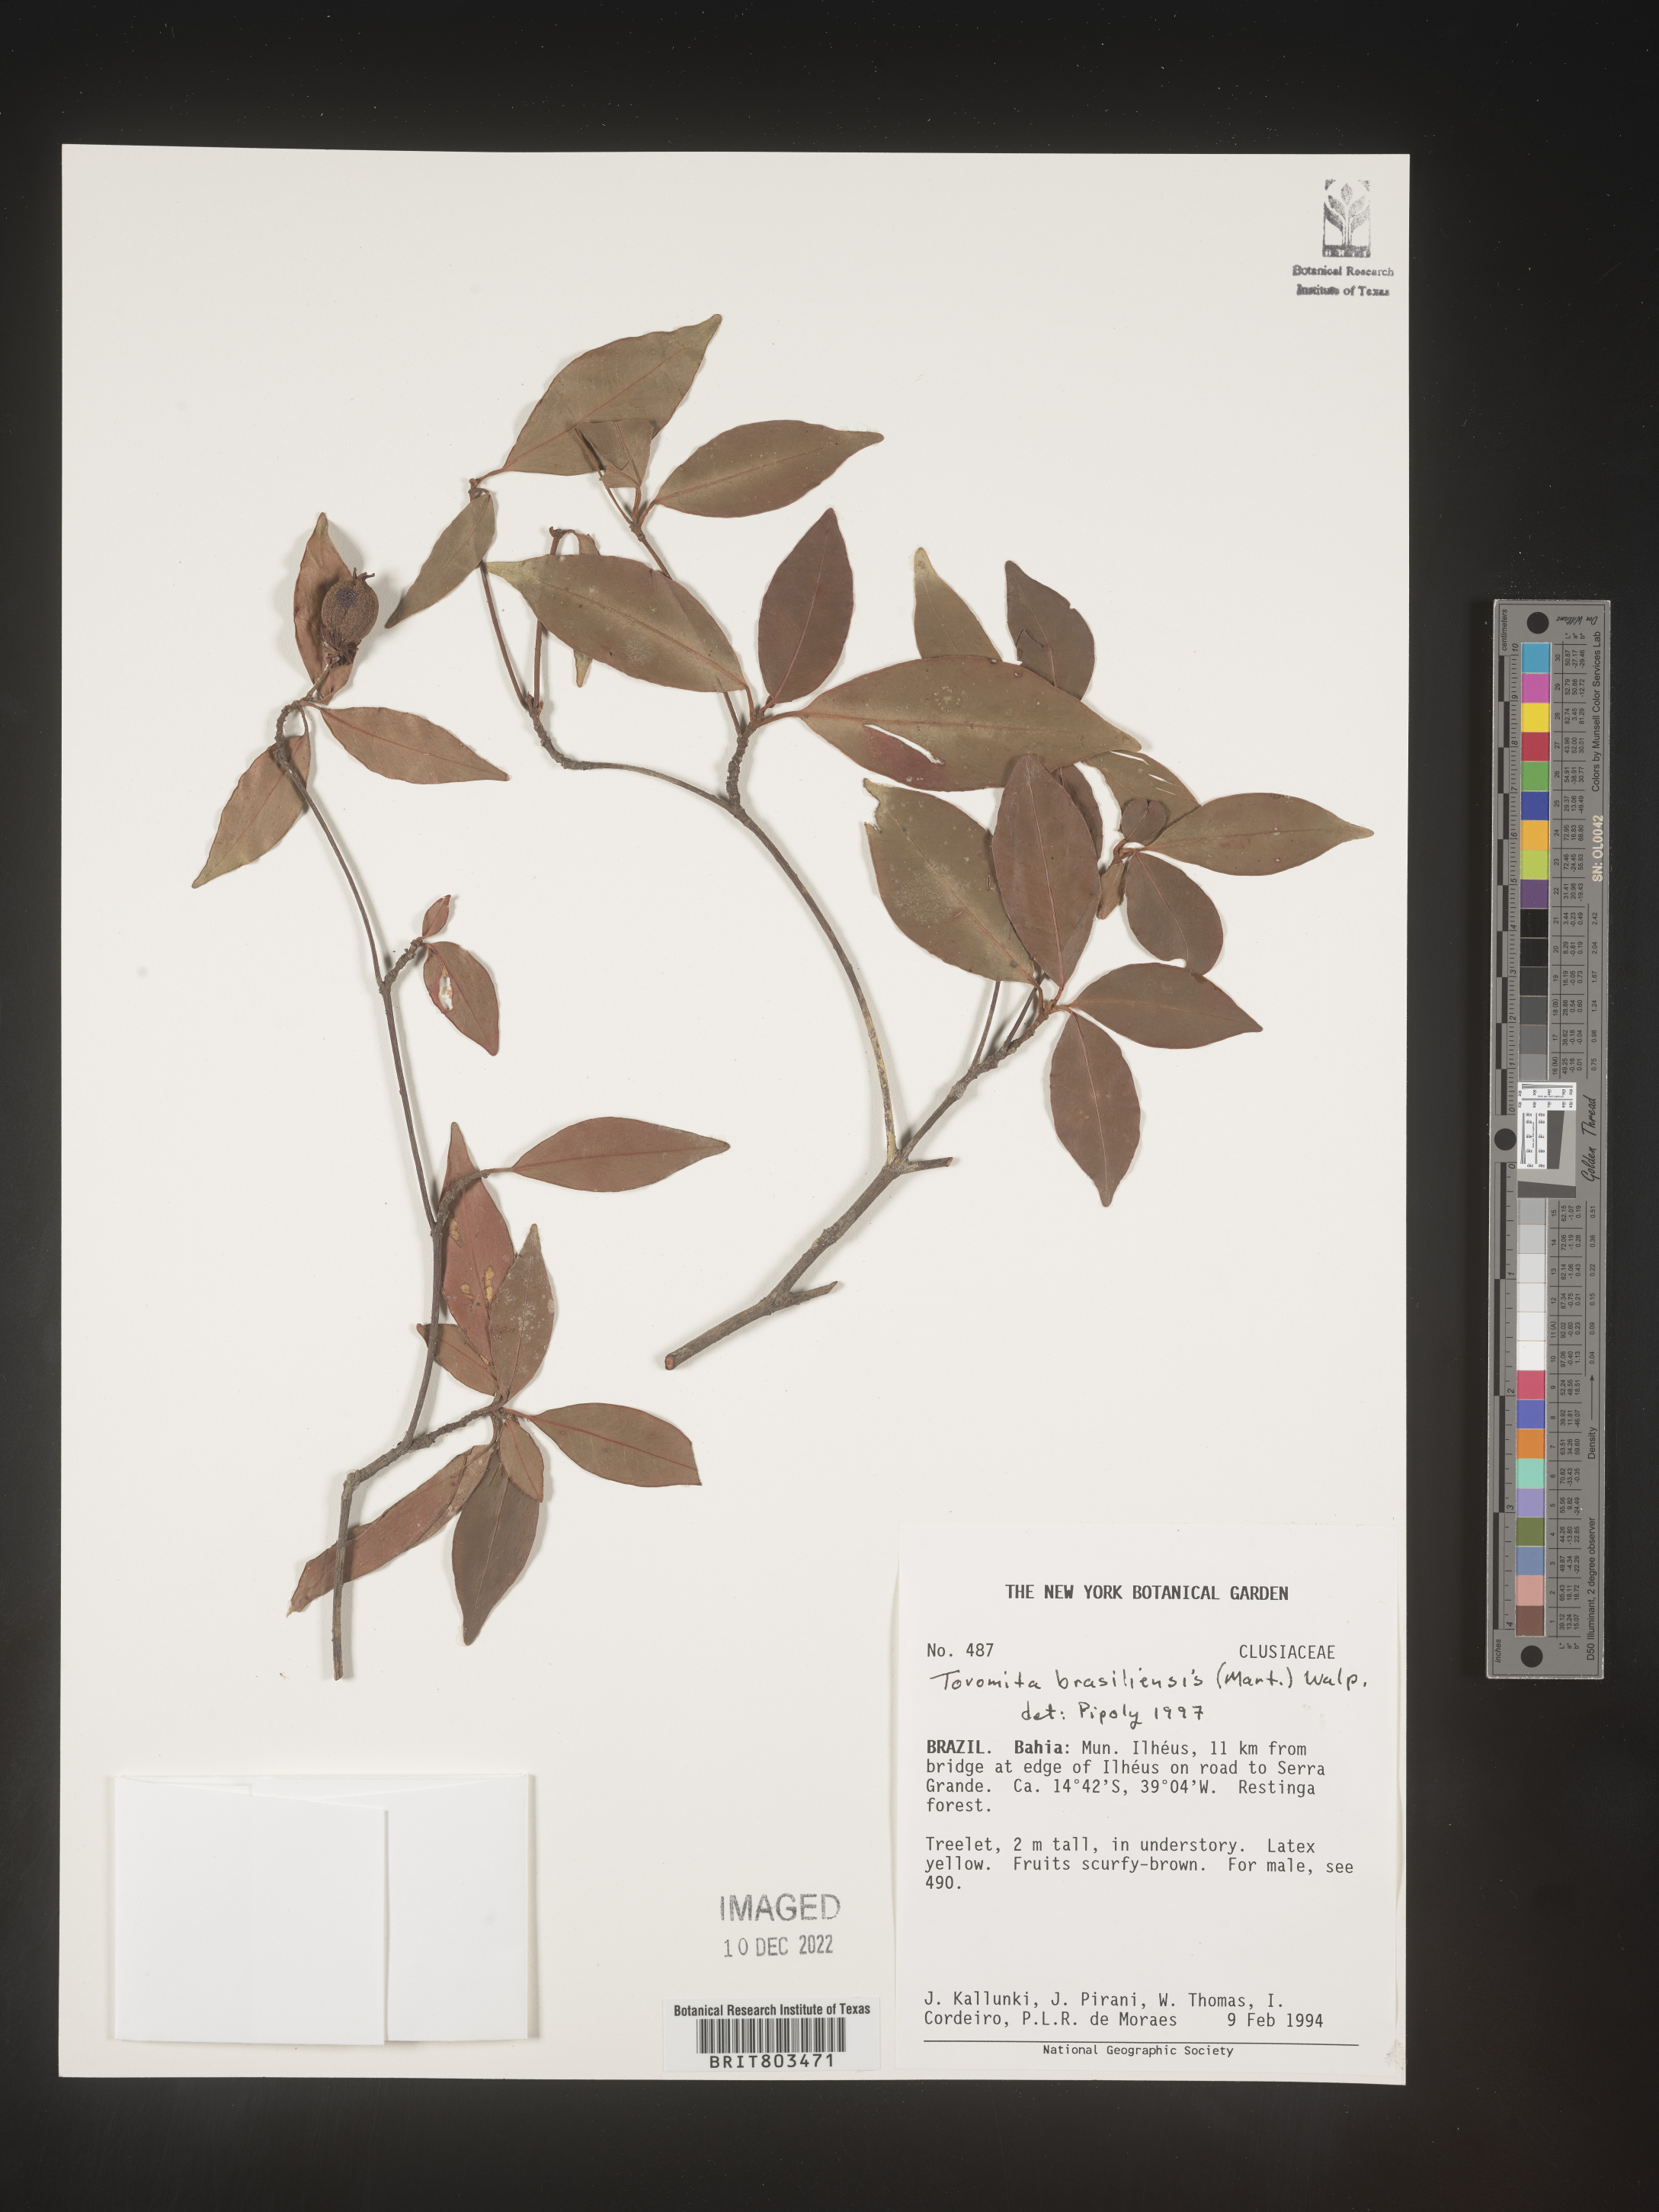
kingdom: Plantae
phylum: Tracheophyta
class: Magnoliopsida
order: Malpighiales
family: Clusiaceae
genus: Tovomita
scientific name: Tovomita
